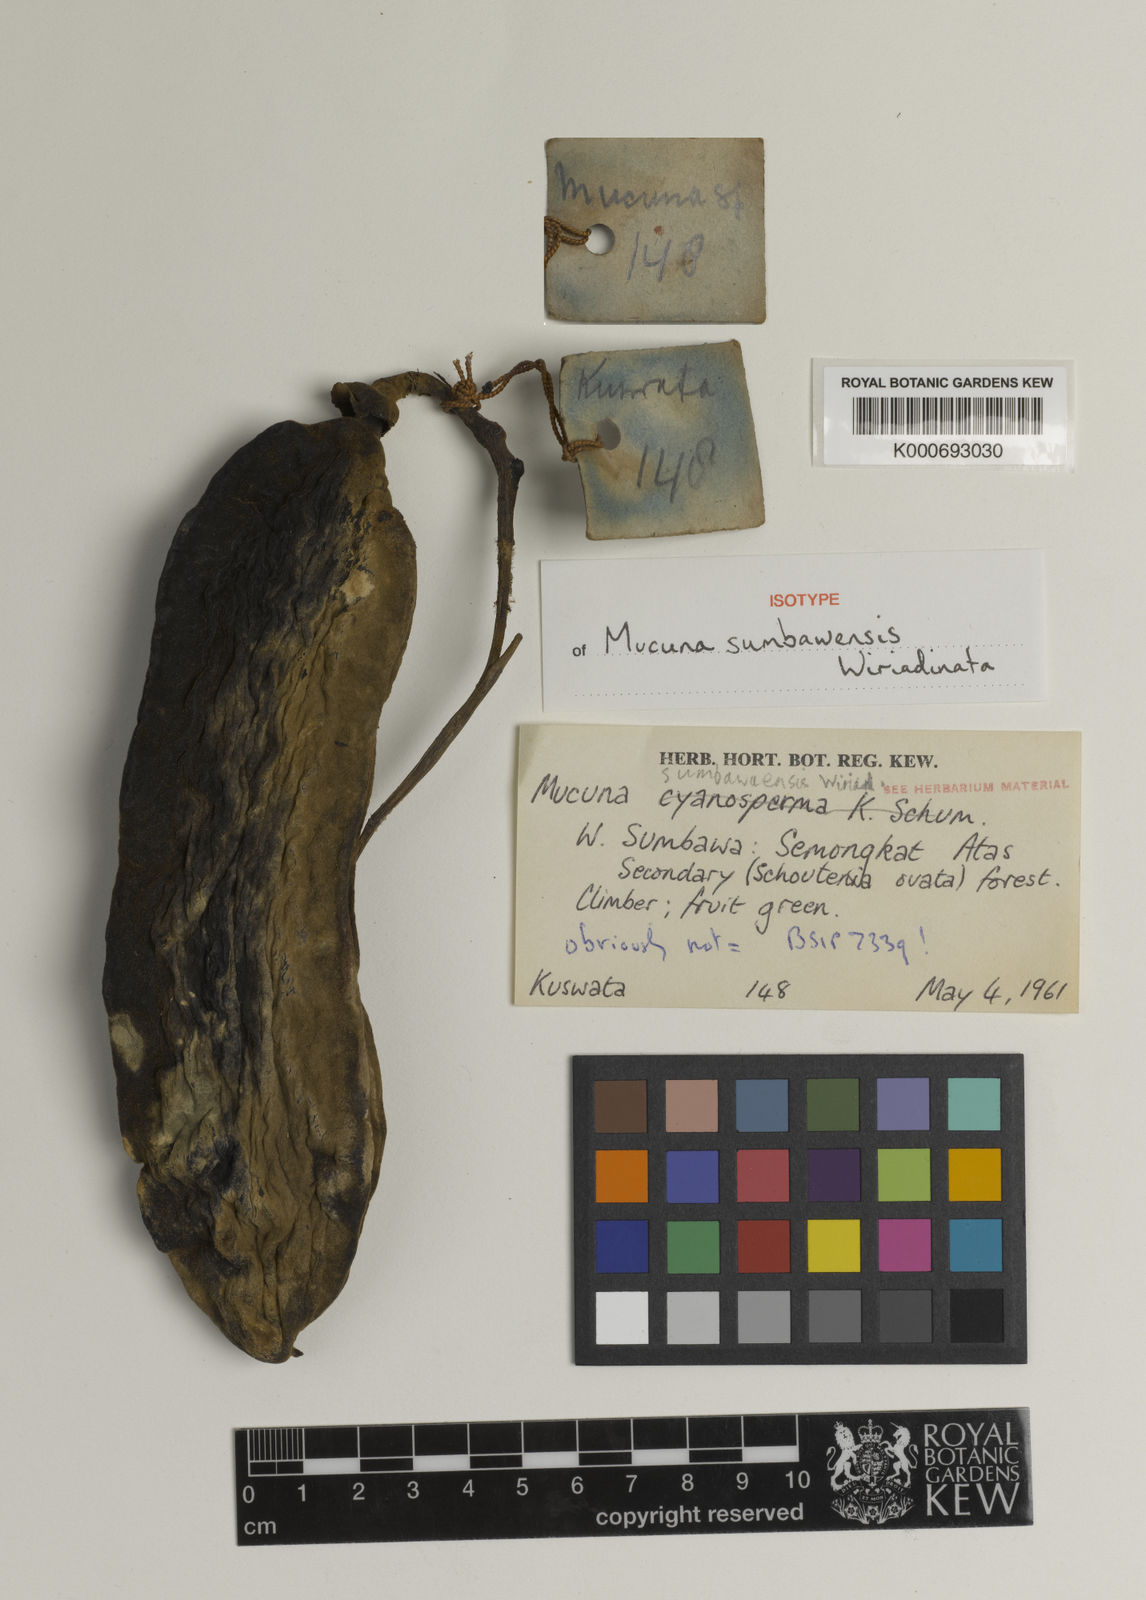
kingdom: Plantae
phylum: Tracheophyta
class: Magnoliopsida
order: Fabales
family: Fabaceae
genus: Mucuna
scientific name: Mucuna
